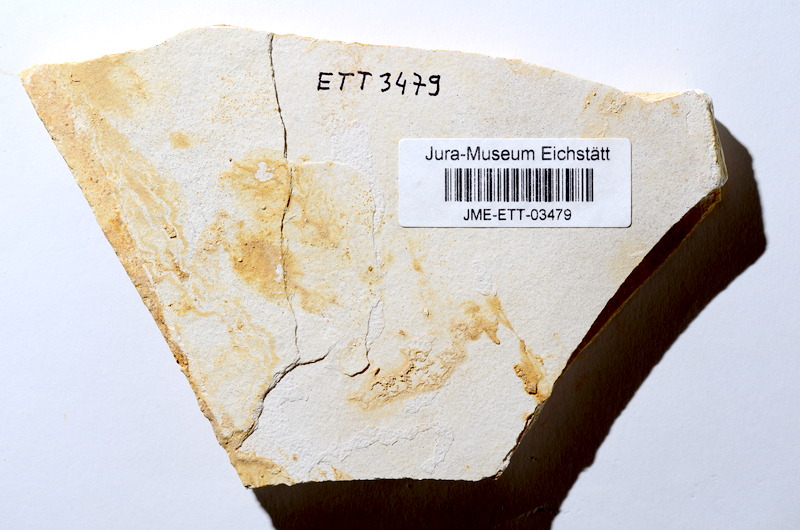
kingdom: Animalia
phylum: Chordata
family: Ascalaboidae
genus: Ebertichthys
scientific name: Ebertichthys ettlingensis
